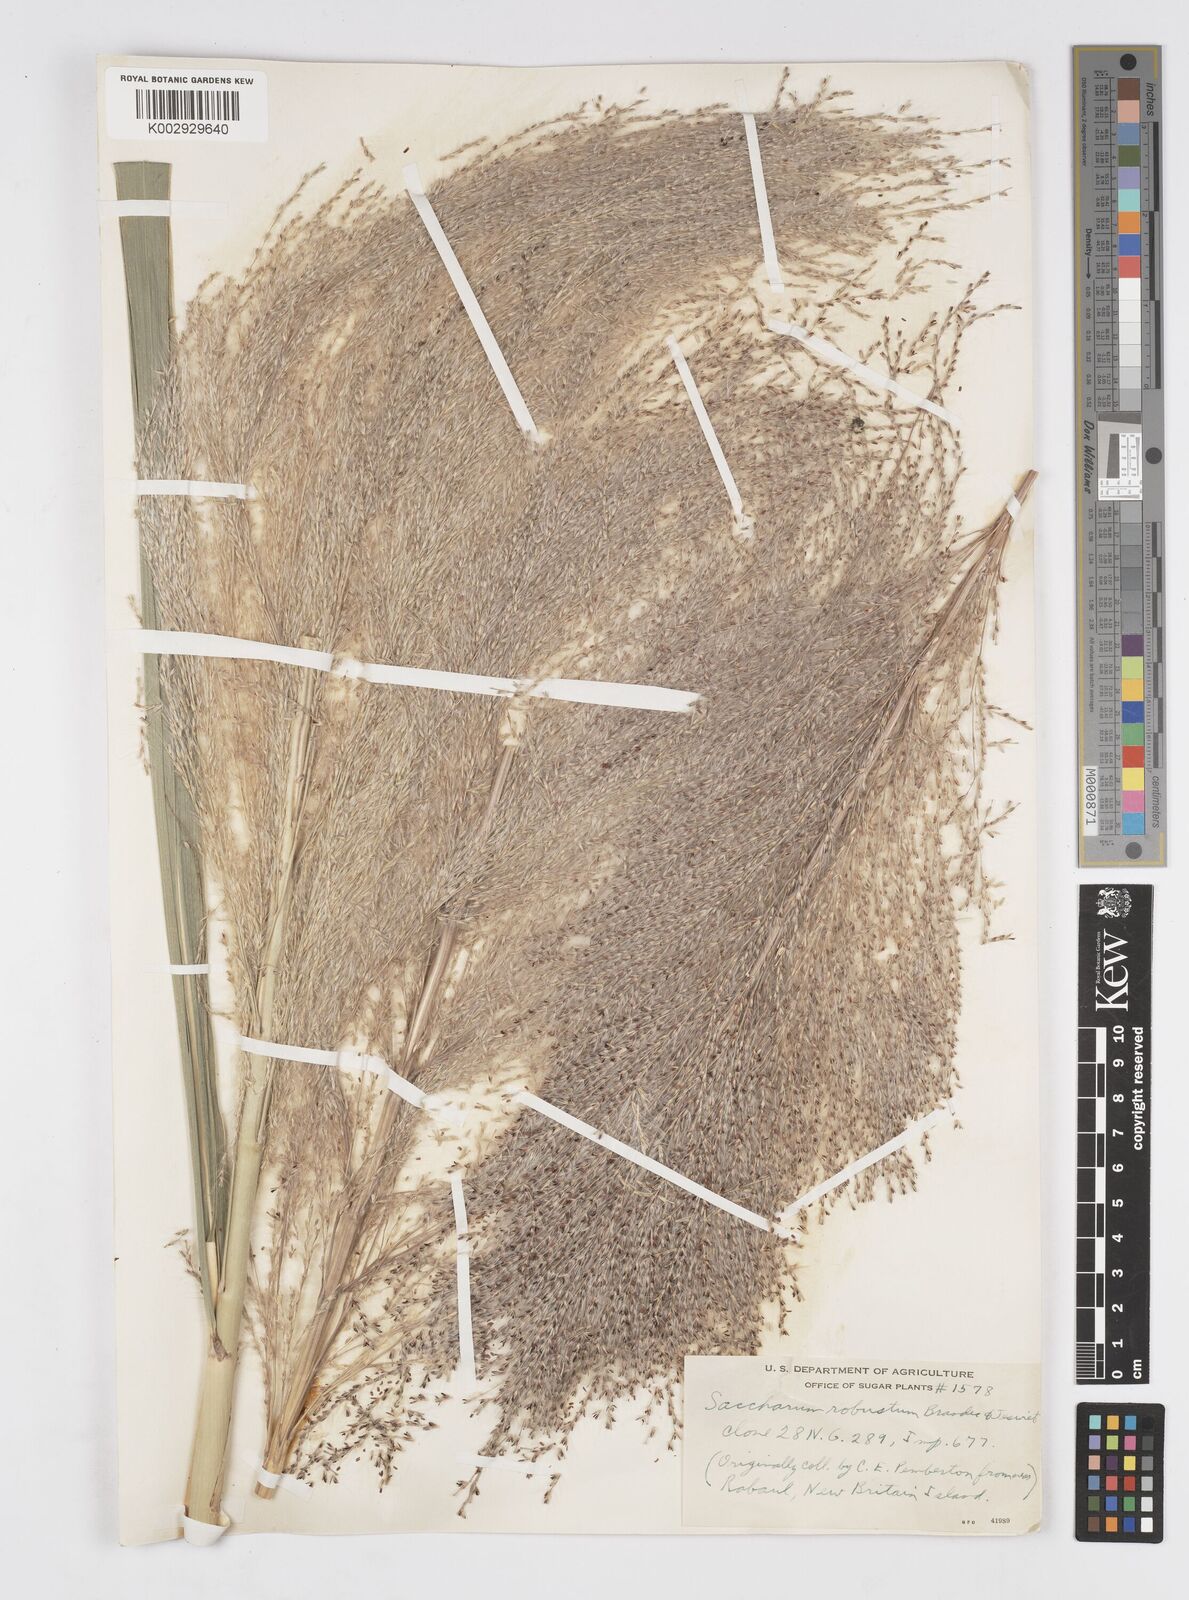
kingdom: Plantae
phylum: Tracheophyta
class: Liliopsida
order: Poales
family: Poaceae
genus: Saccharum
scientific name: Saccharum robustum
